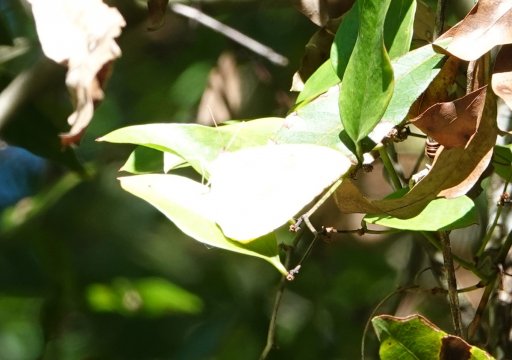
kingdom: Animalia
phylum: Arthropoda
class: Insecta
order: Lepidoptera
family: Pieridae
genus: Phoebis
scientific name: Phoebis sennae
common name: Cloudless Sulphur
